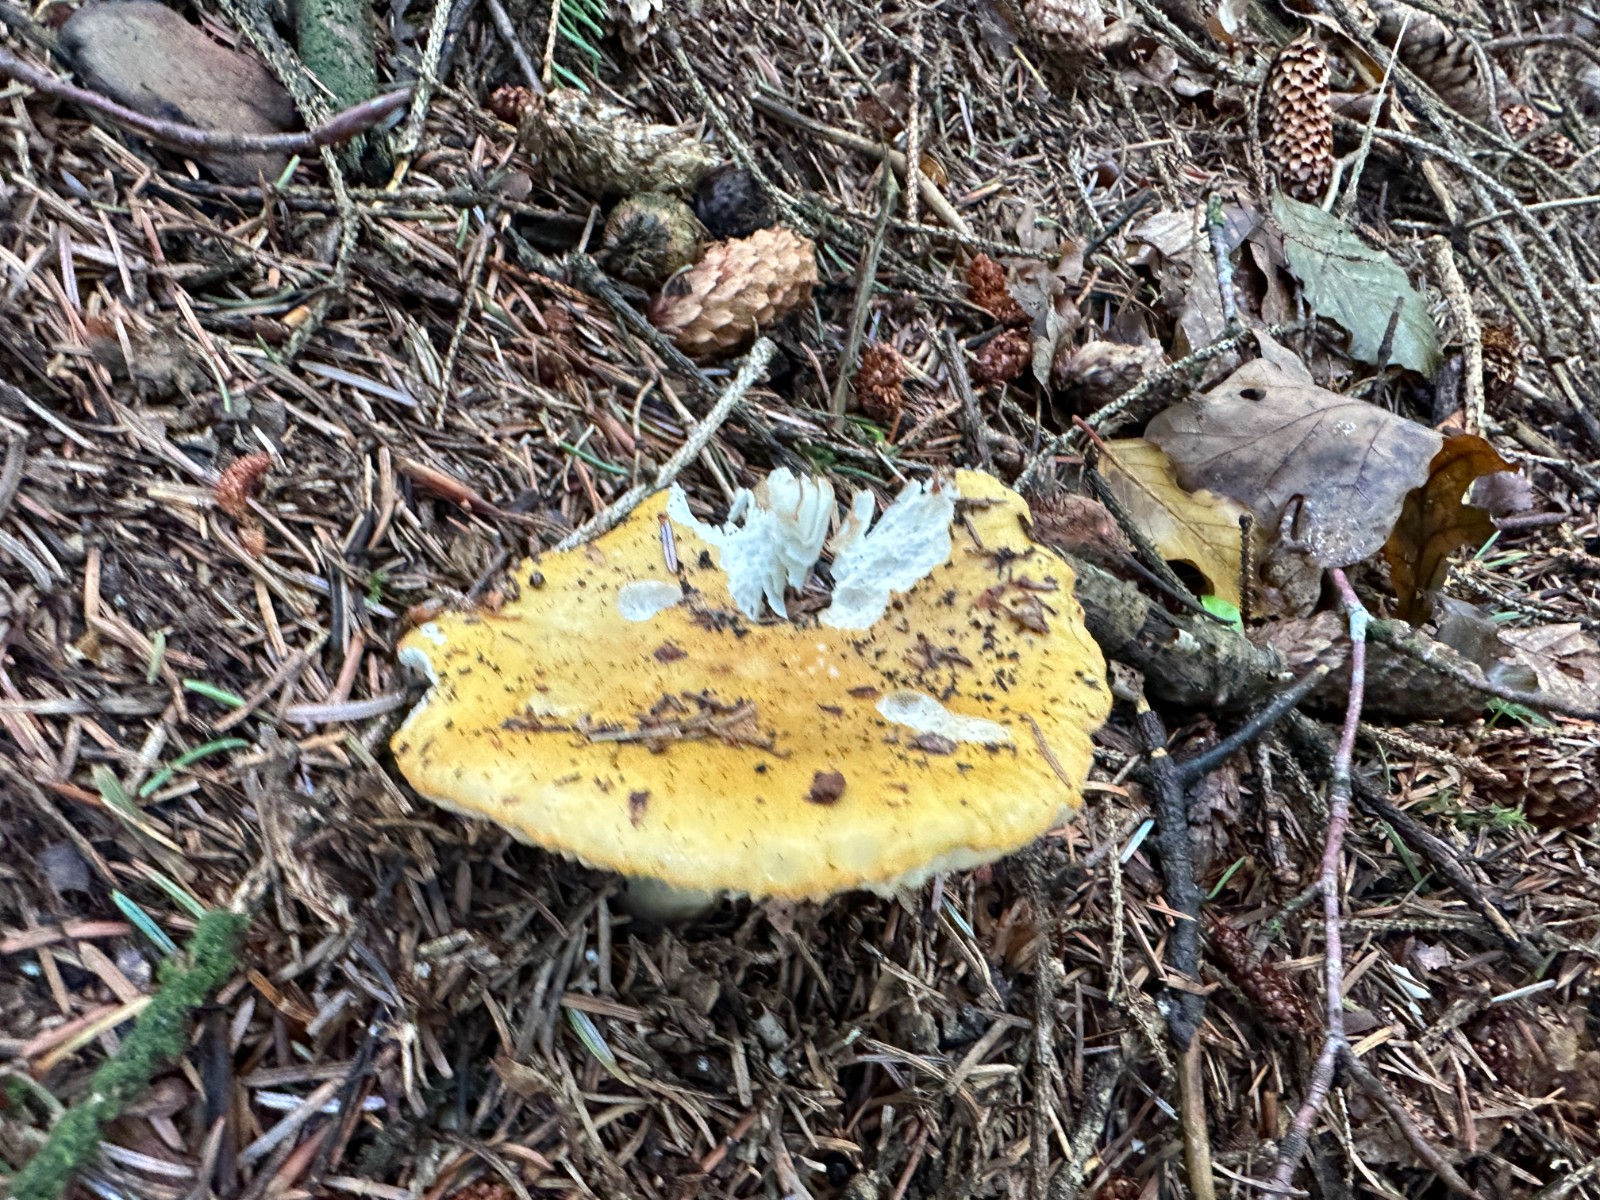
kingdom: Fungi
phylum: Basidiomycota
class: Agaricomycetes
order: Russulales
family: Russulaceae
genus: Russula
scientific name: Russula ochroleuca
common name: okkergul skørhat
